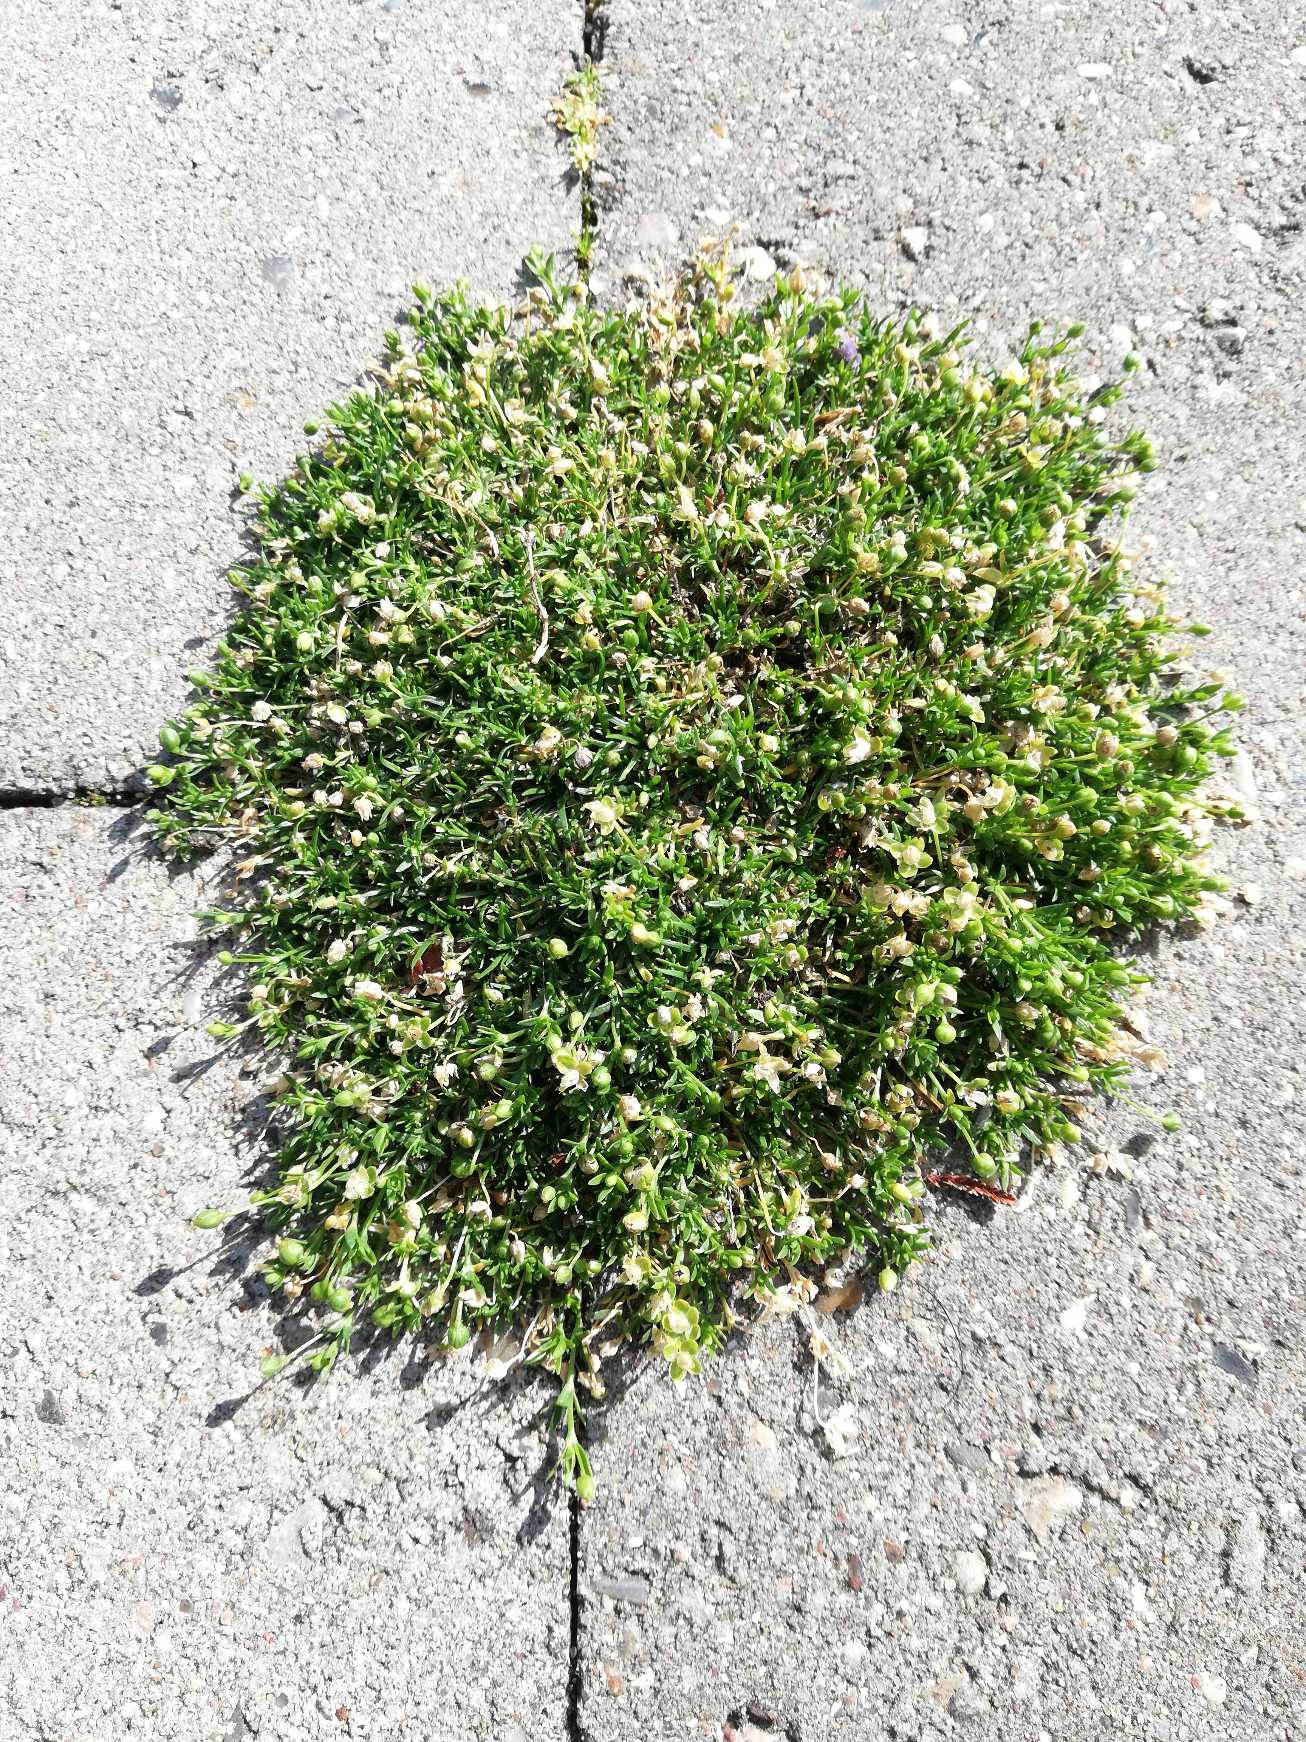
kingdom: Plantae
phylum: Tracheophyta
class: Magnoliopsida
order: Caryophyllales
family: Caryophyllaceae
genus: Sagina
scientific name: Sagina procumbens
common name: Almindelig firling
